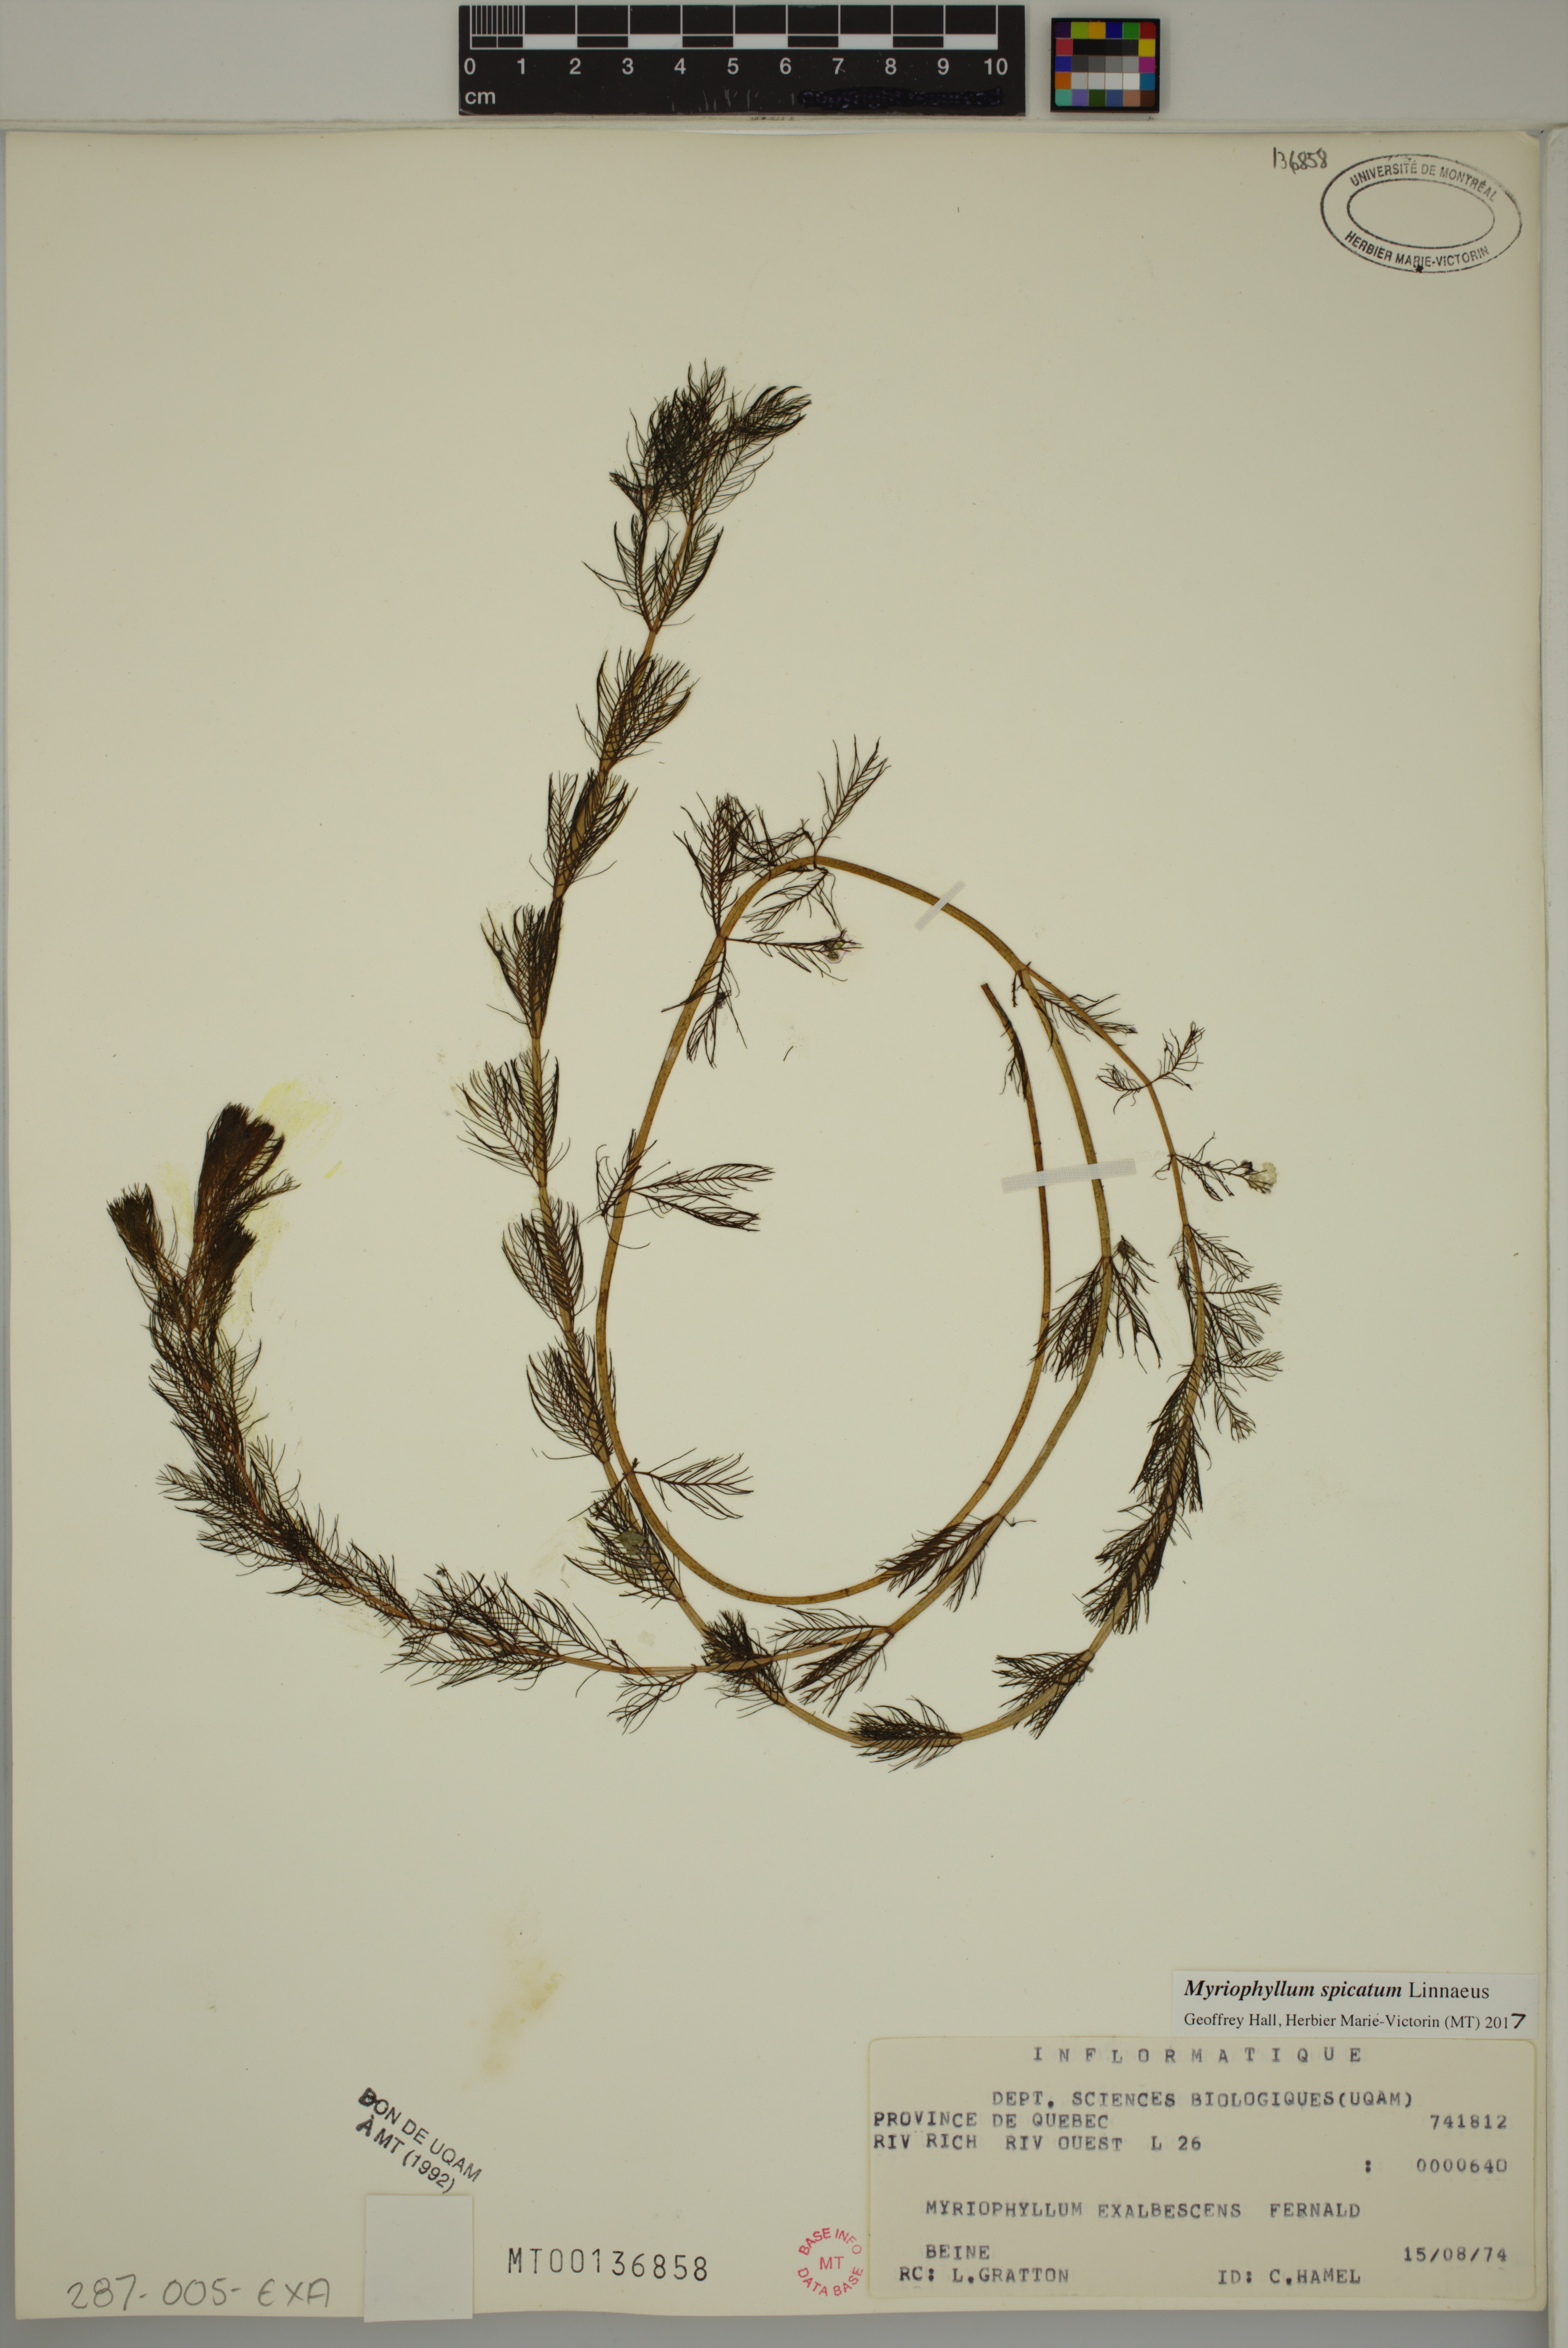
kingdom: Plantae
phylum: Tracheophyta
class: Magnoliopsida
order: Saxifragales
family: Haloragaceae
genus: Myriophyllum
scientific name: Myriophyllum spicatum
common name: Spiked water-milfoil
